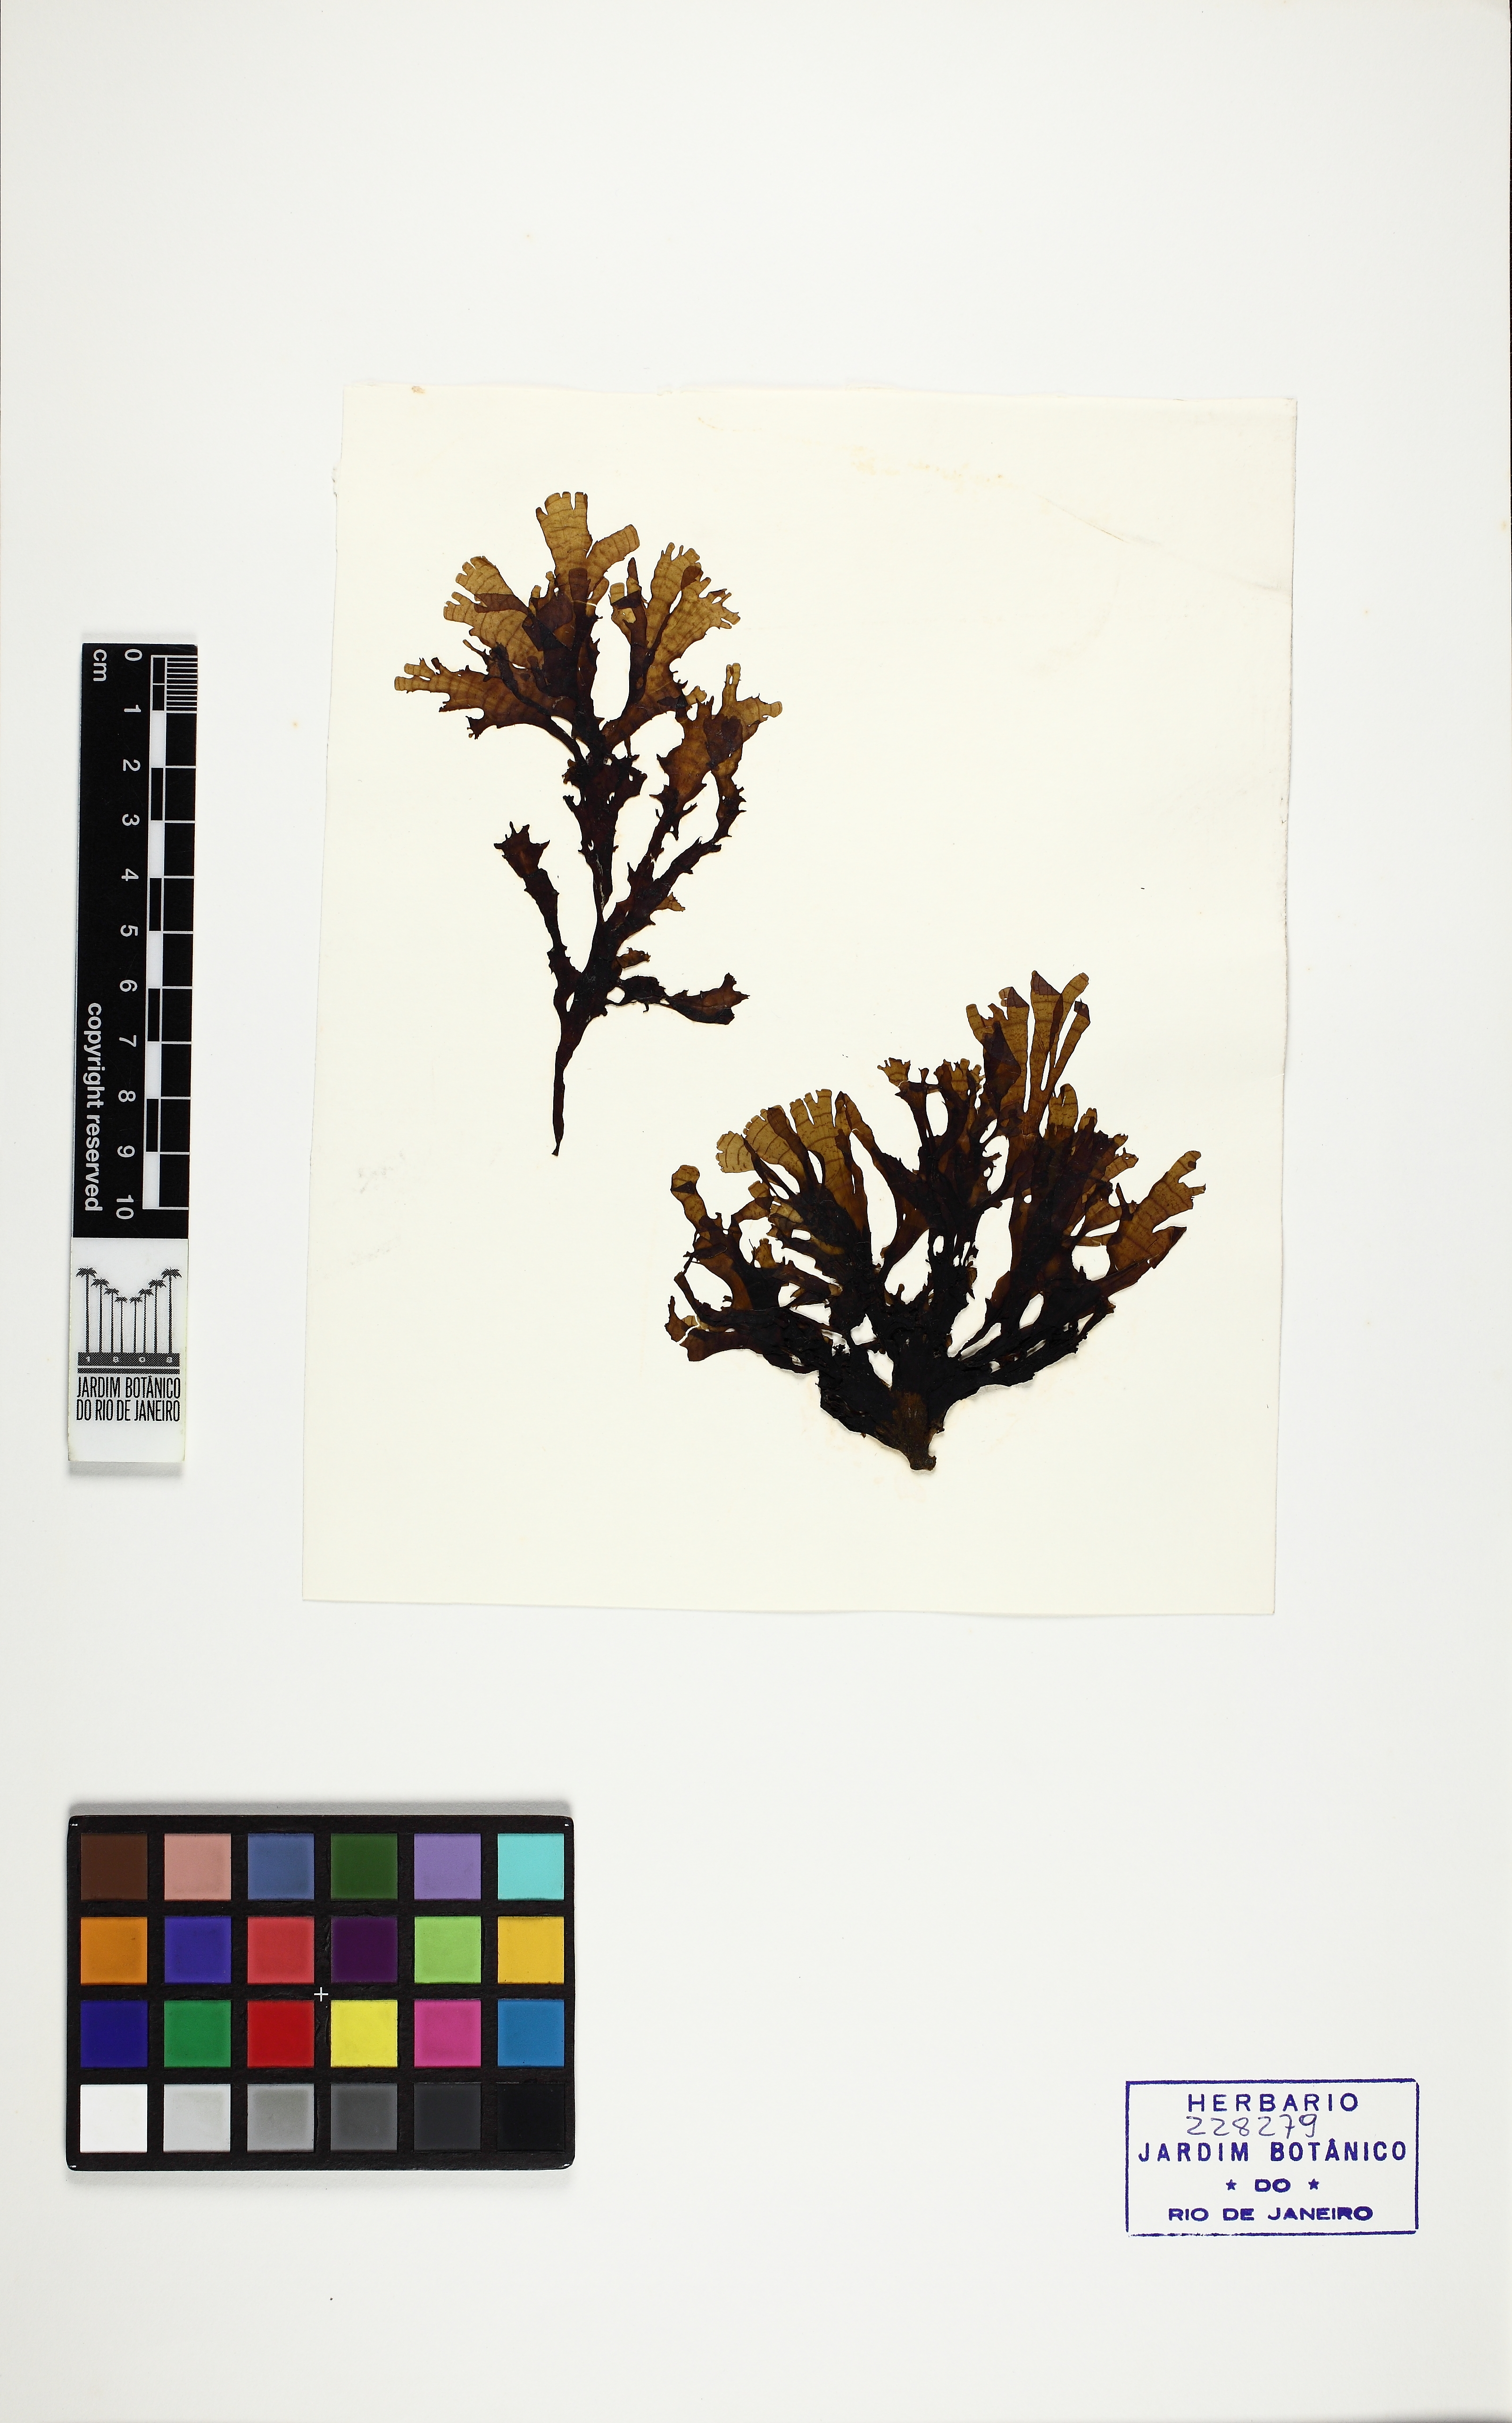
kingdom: Chromista
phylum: Ochrophyta
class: Phaeophyceae
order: Dictyotales
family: Dictyotaceae
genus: Stypopodium
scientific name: Stypopodium zonale
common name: Leafy flat-blade algae
